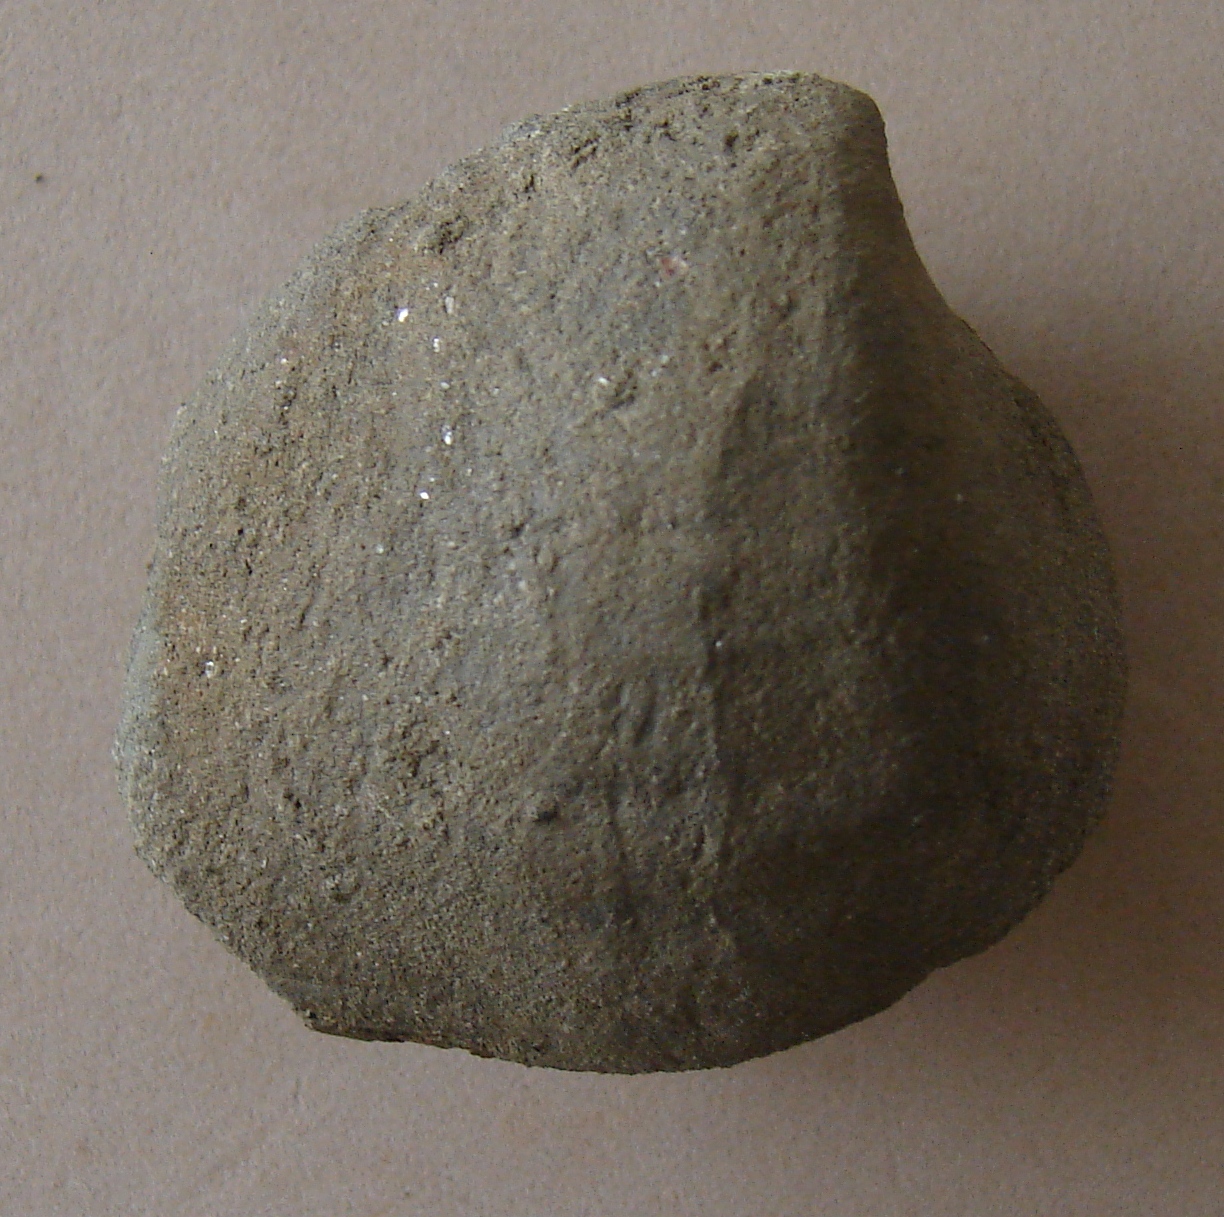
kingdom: Animalia
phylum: Mollusca
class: Bivalvia
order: Myida
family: Ceratomyidae
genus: Gresslya
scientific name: Gresslya
